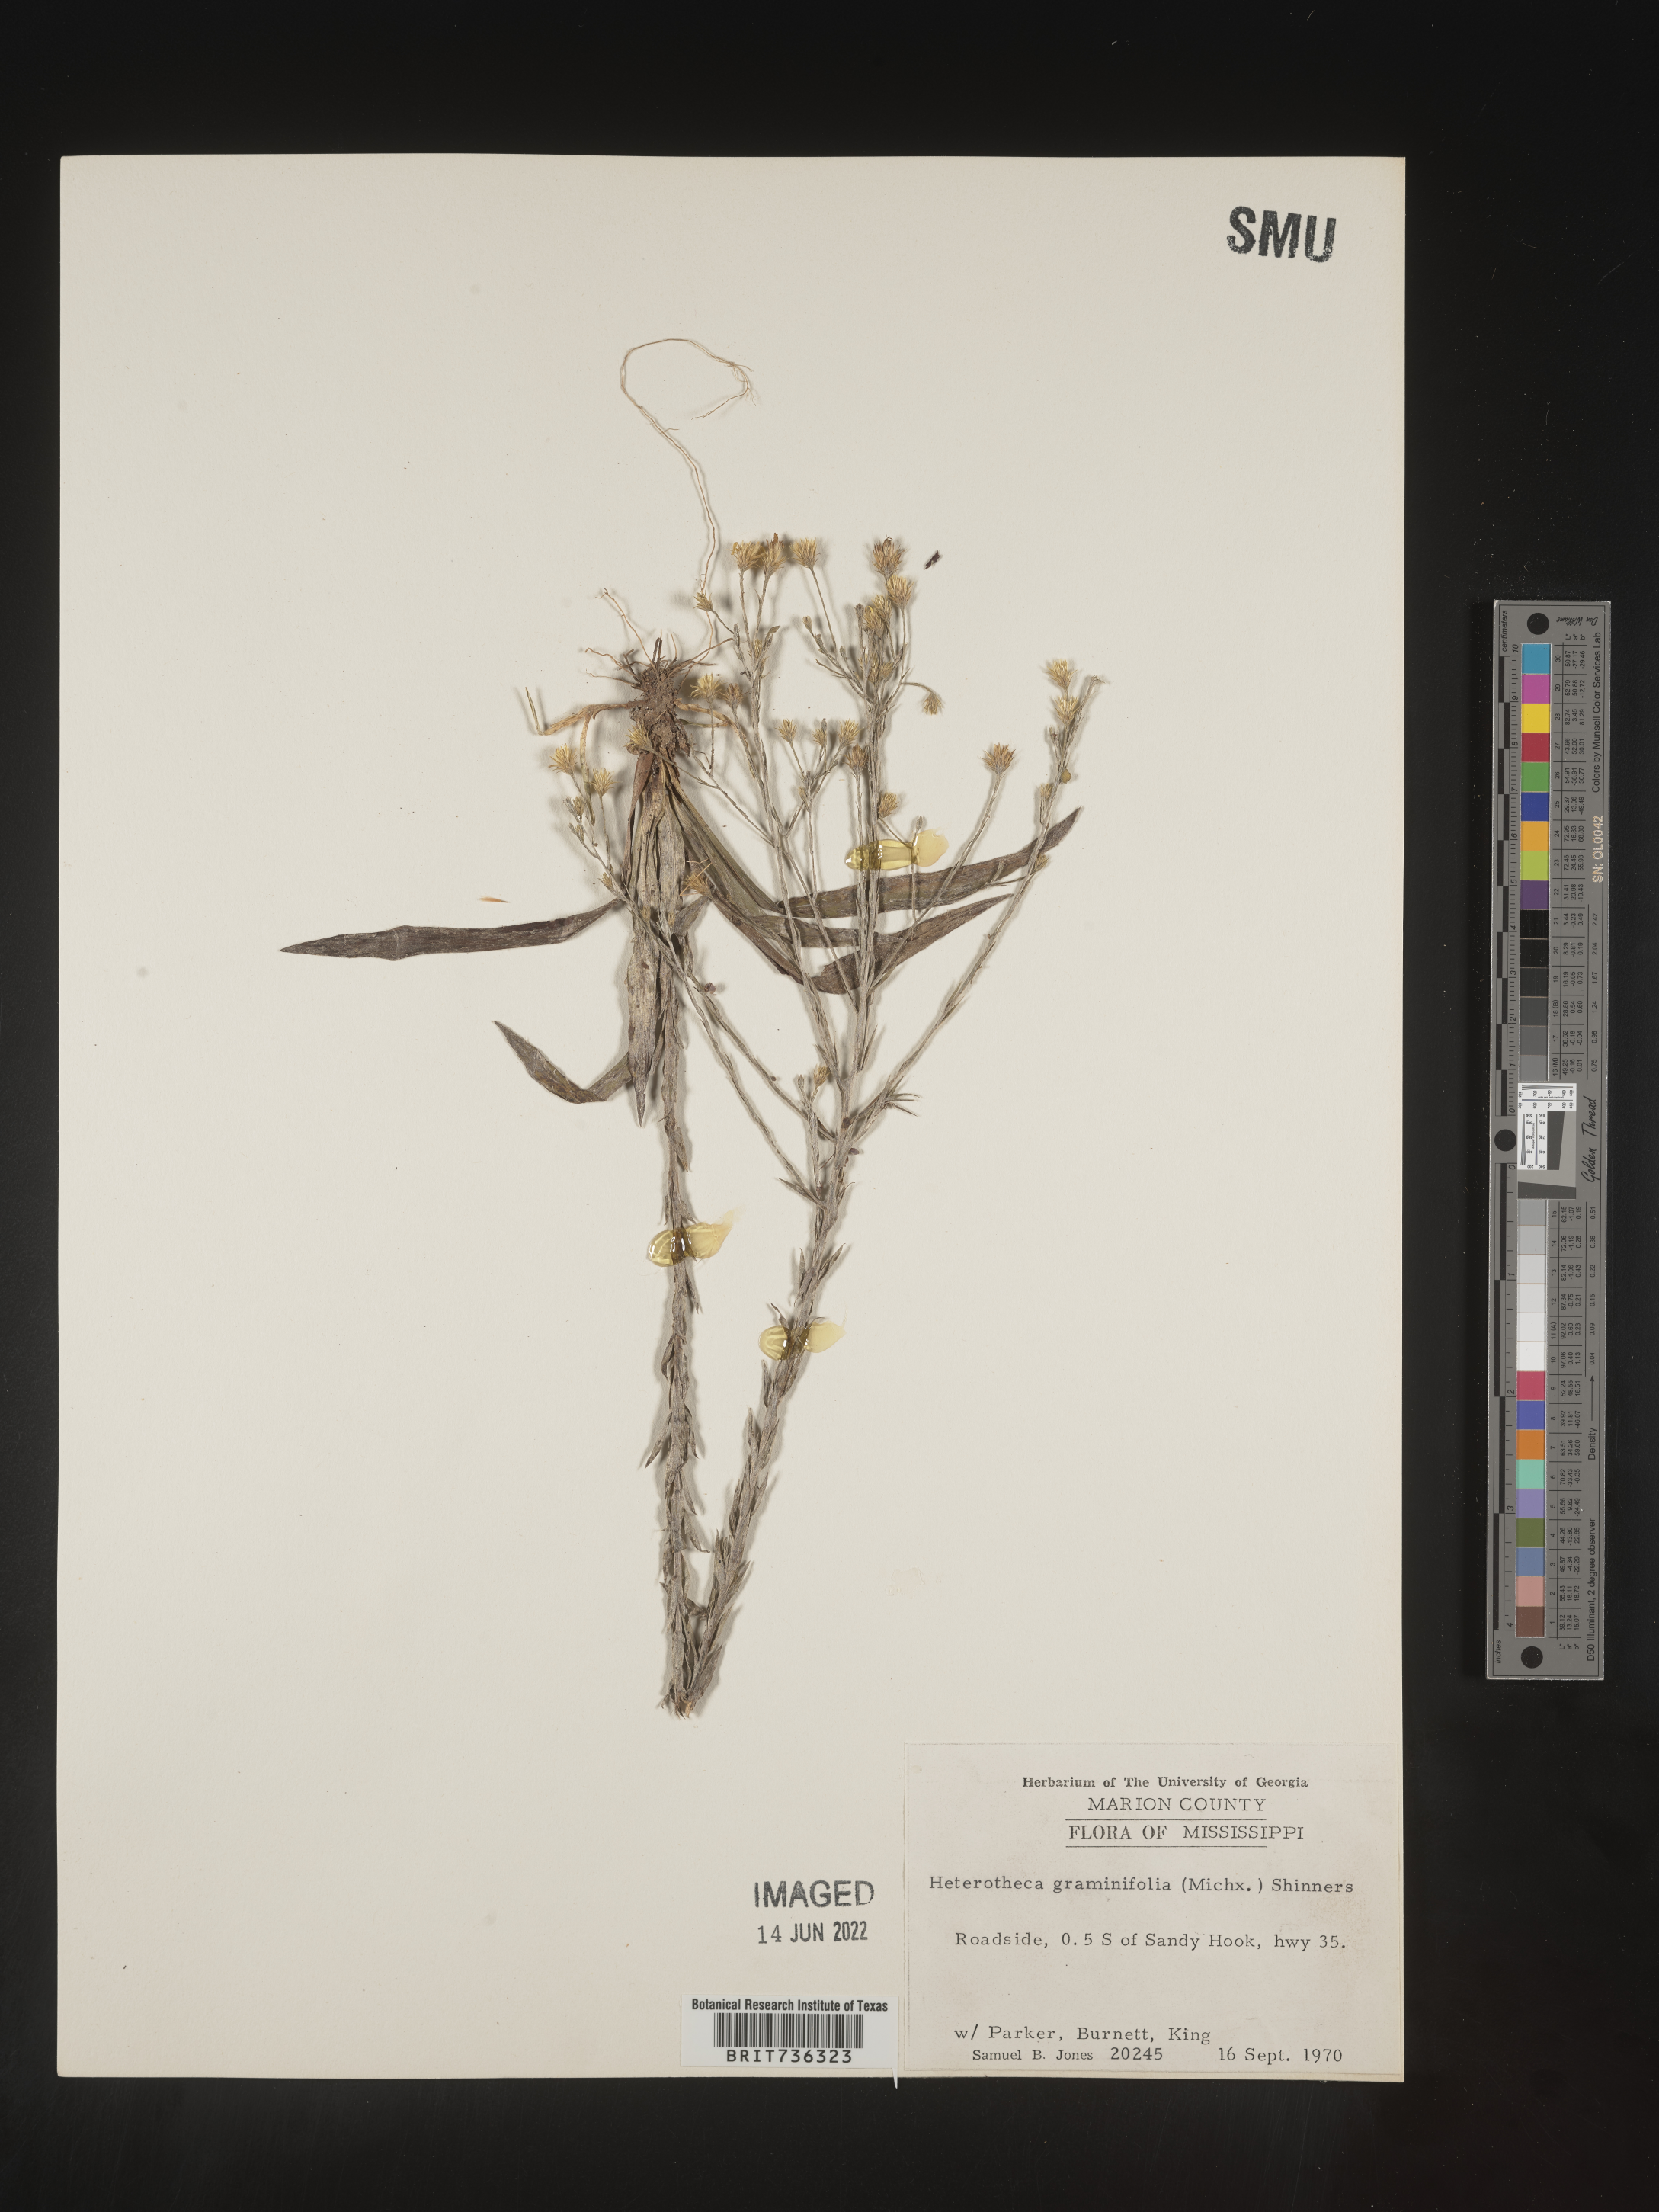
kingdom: Plantae
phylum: Tracheophyta
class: Magnoliopsida
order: Asterales
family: Asteraceae
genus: Pityopsis
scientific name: Pityopsis microcephala
